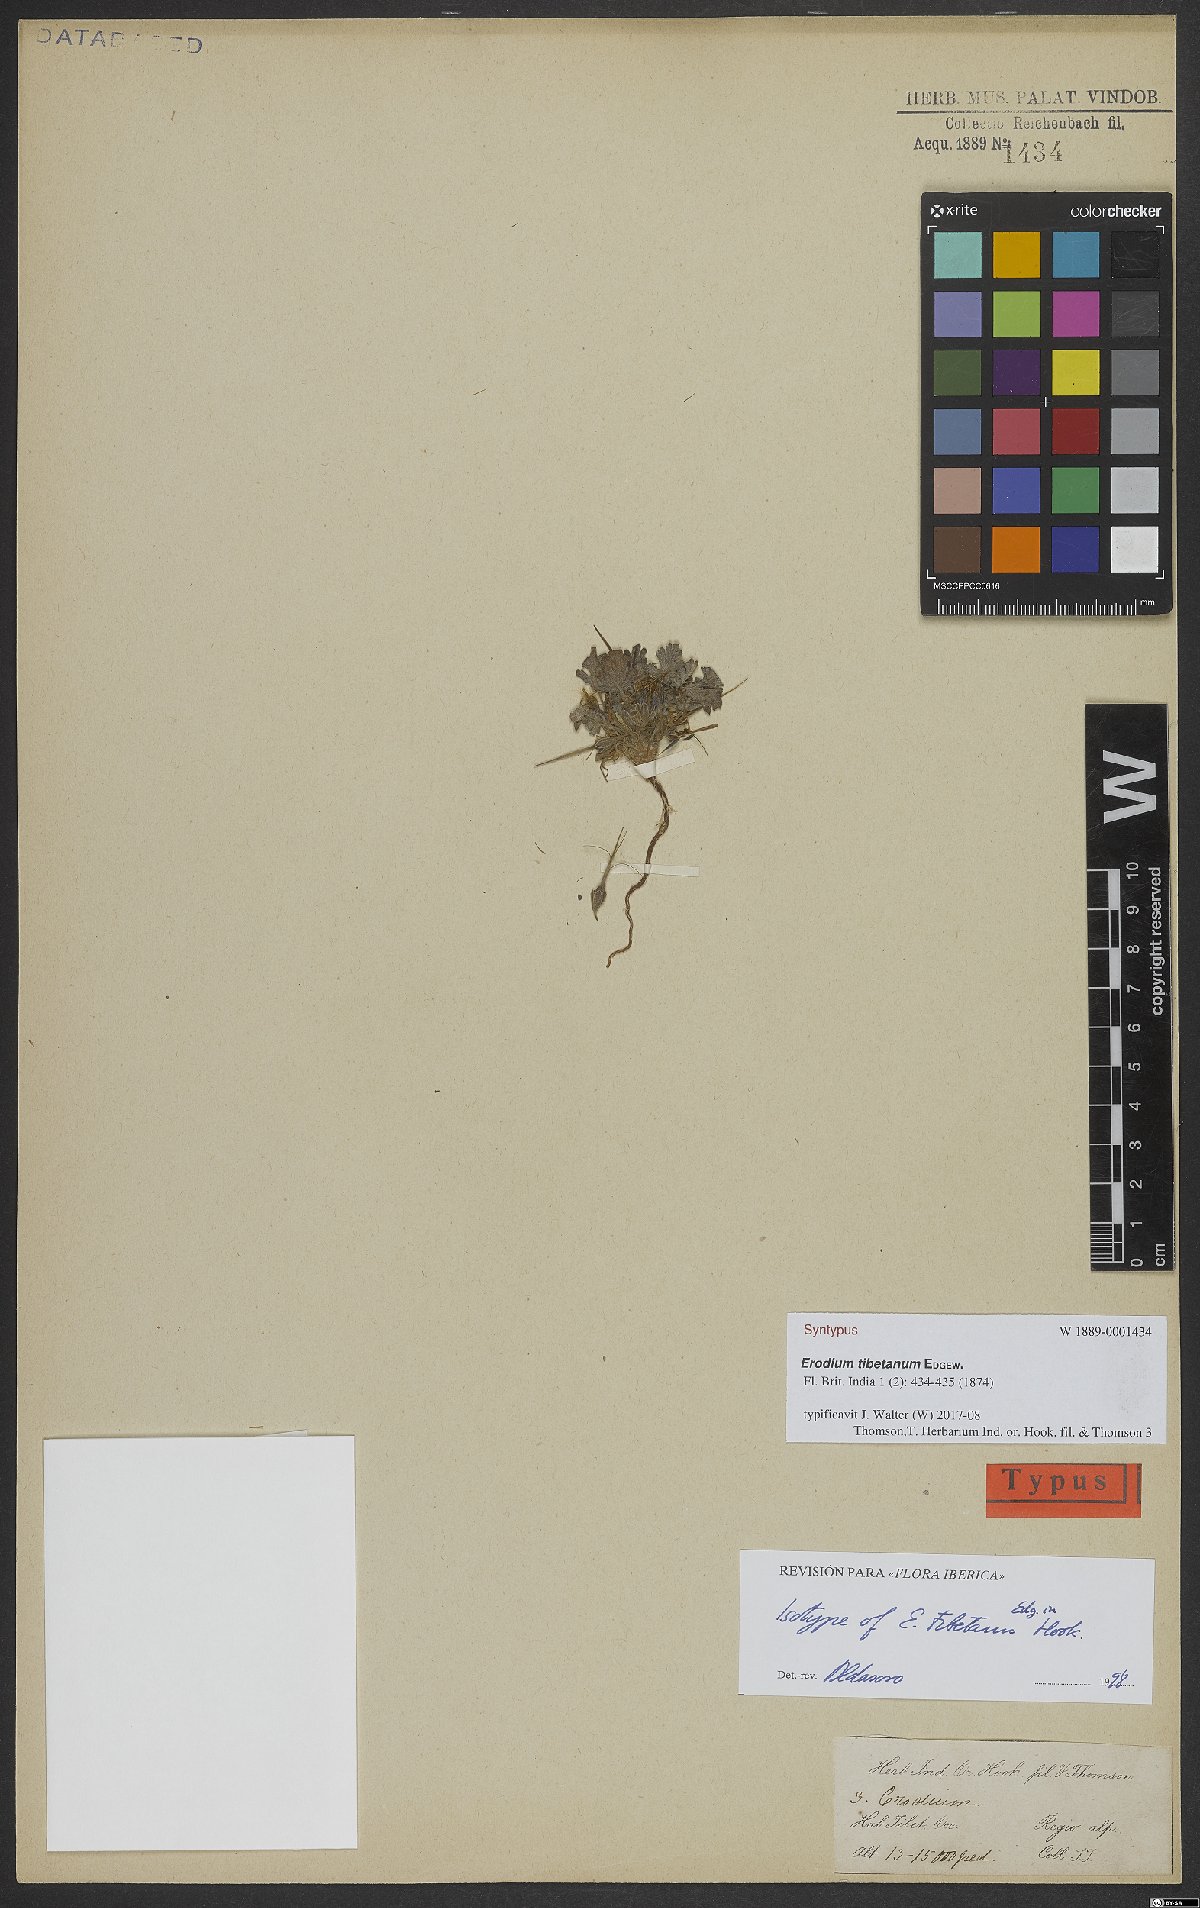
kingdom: Plantae
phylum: Tracheophyta
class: Magnoliopsida
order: Geraniales
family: Geraniaceae
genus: Erodium
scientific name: Erodium tibetanum
